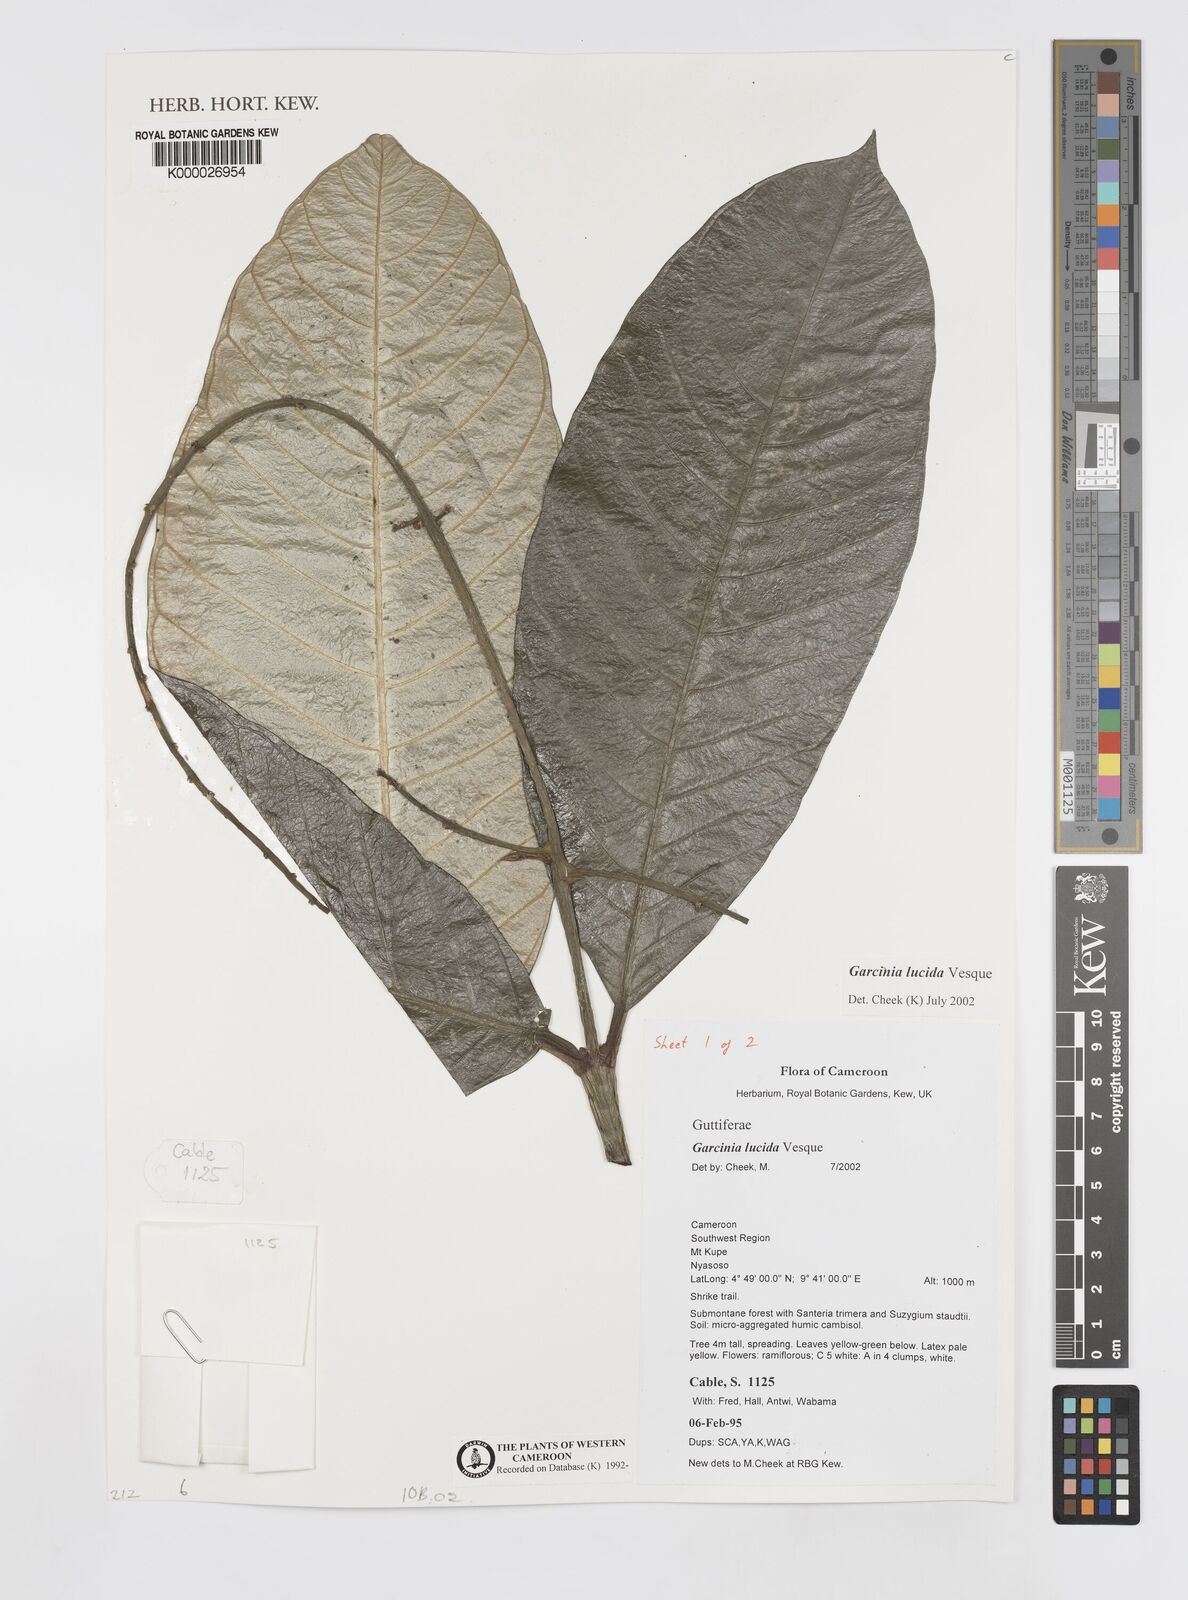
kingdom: Plantae
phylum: Tracheophyta
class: Magnoliopsida
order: Malpighiales
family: Clusiaceae
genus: Garcinia
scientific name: Garcinia lucida
